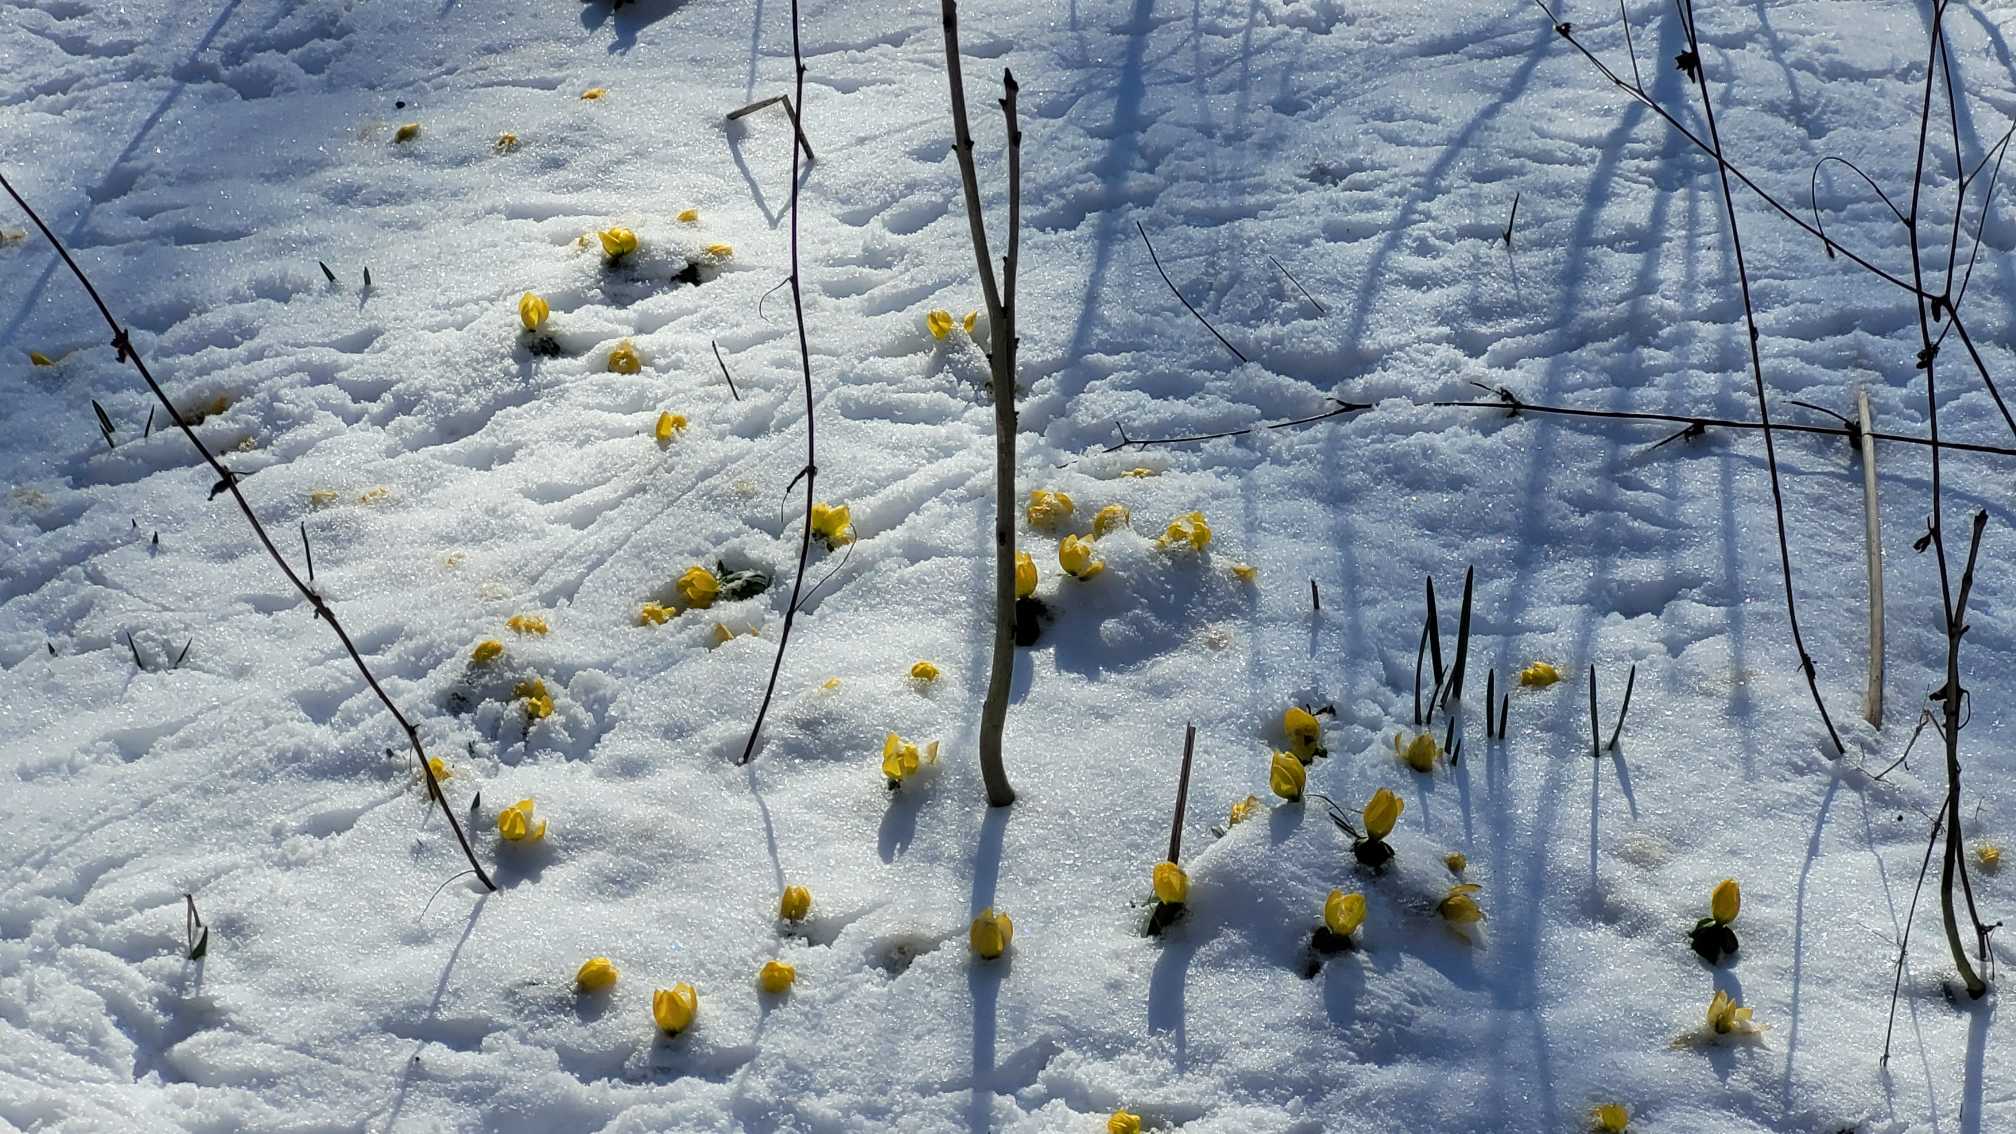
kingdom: Plantae
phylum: Tracheophyta
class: Magnoliopsida
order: Ranunculales
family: Ranunculaceae
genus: Eranthis
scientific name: Eranthis hyemalis
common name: Erantis
